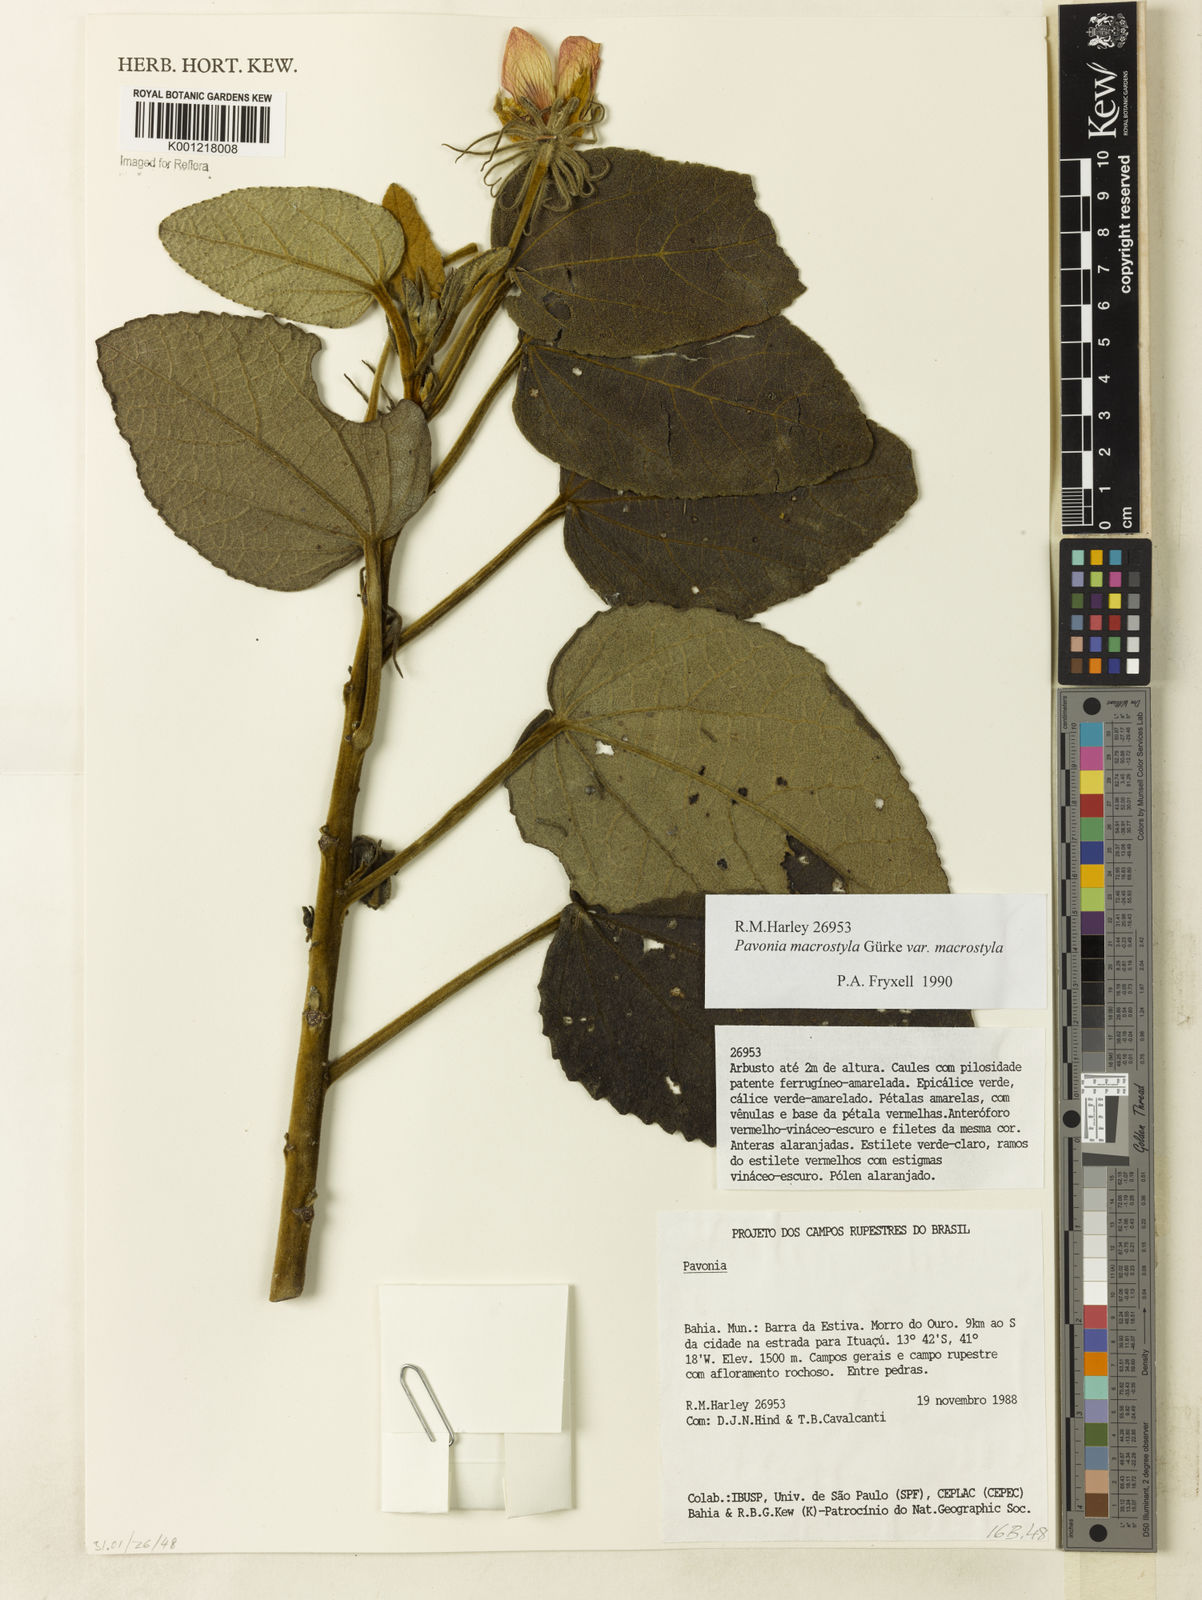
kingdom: Plantae
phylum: Tracheophyta
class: Magnoliopsida
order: Malvales
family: Malvaceae
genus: Pavonia
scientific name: Pavonia macrostyla
